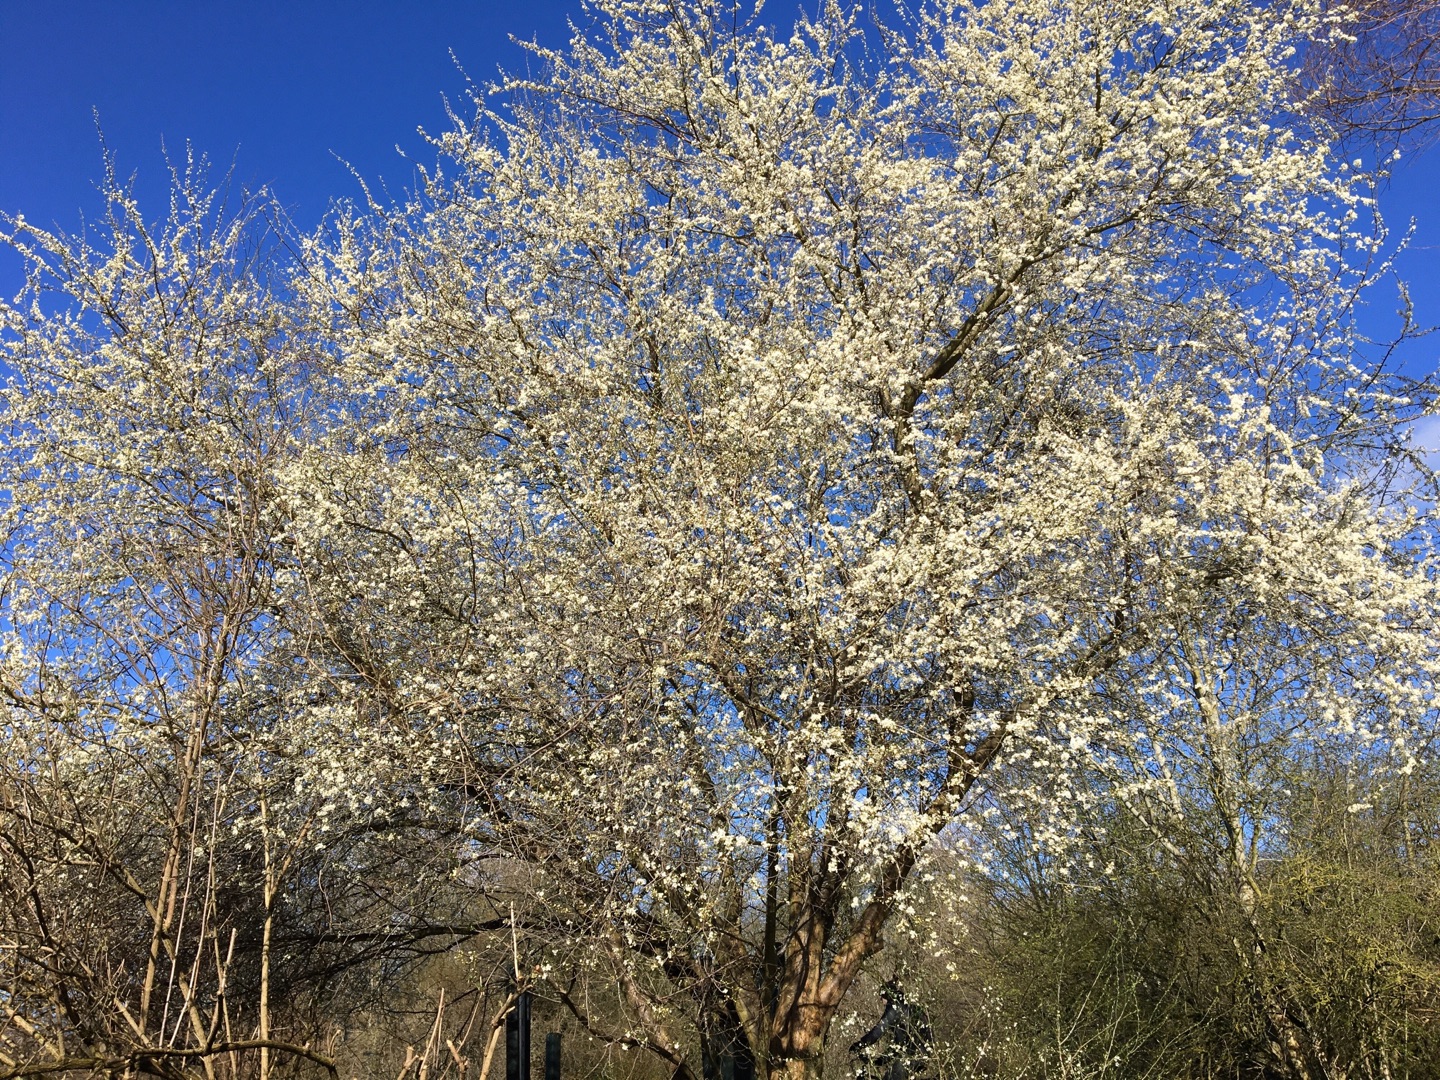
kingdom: Plantae
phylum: Tracheophyta
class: Magnoliopsida
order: Rosales
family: Rosaceae
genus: Prunus
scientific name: Prunus cerasifera
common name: Mirabel
